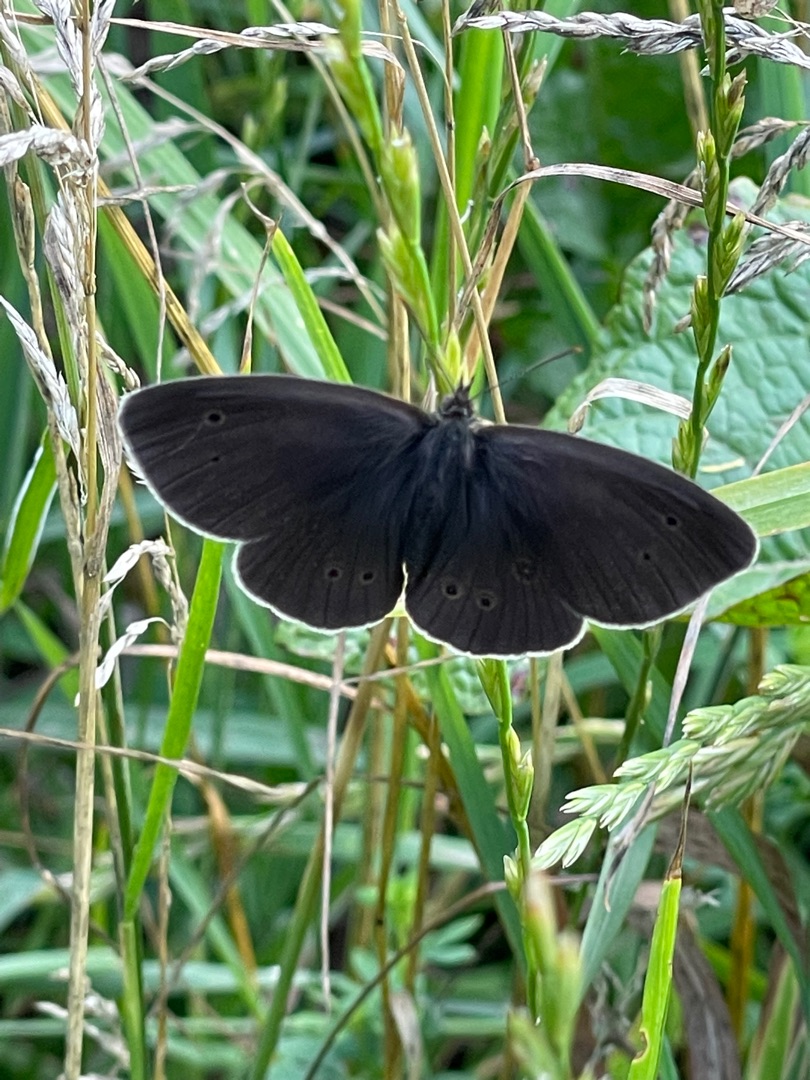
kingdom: Animalia
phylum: Arthropoda
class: Insecta
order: Lepidoptera
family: Nymphalidae
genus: Aphantopus
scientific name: Aphantopus hyperantus
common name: Engrandøje
